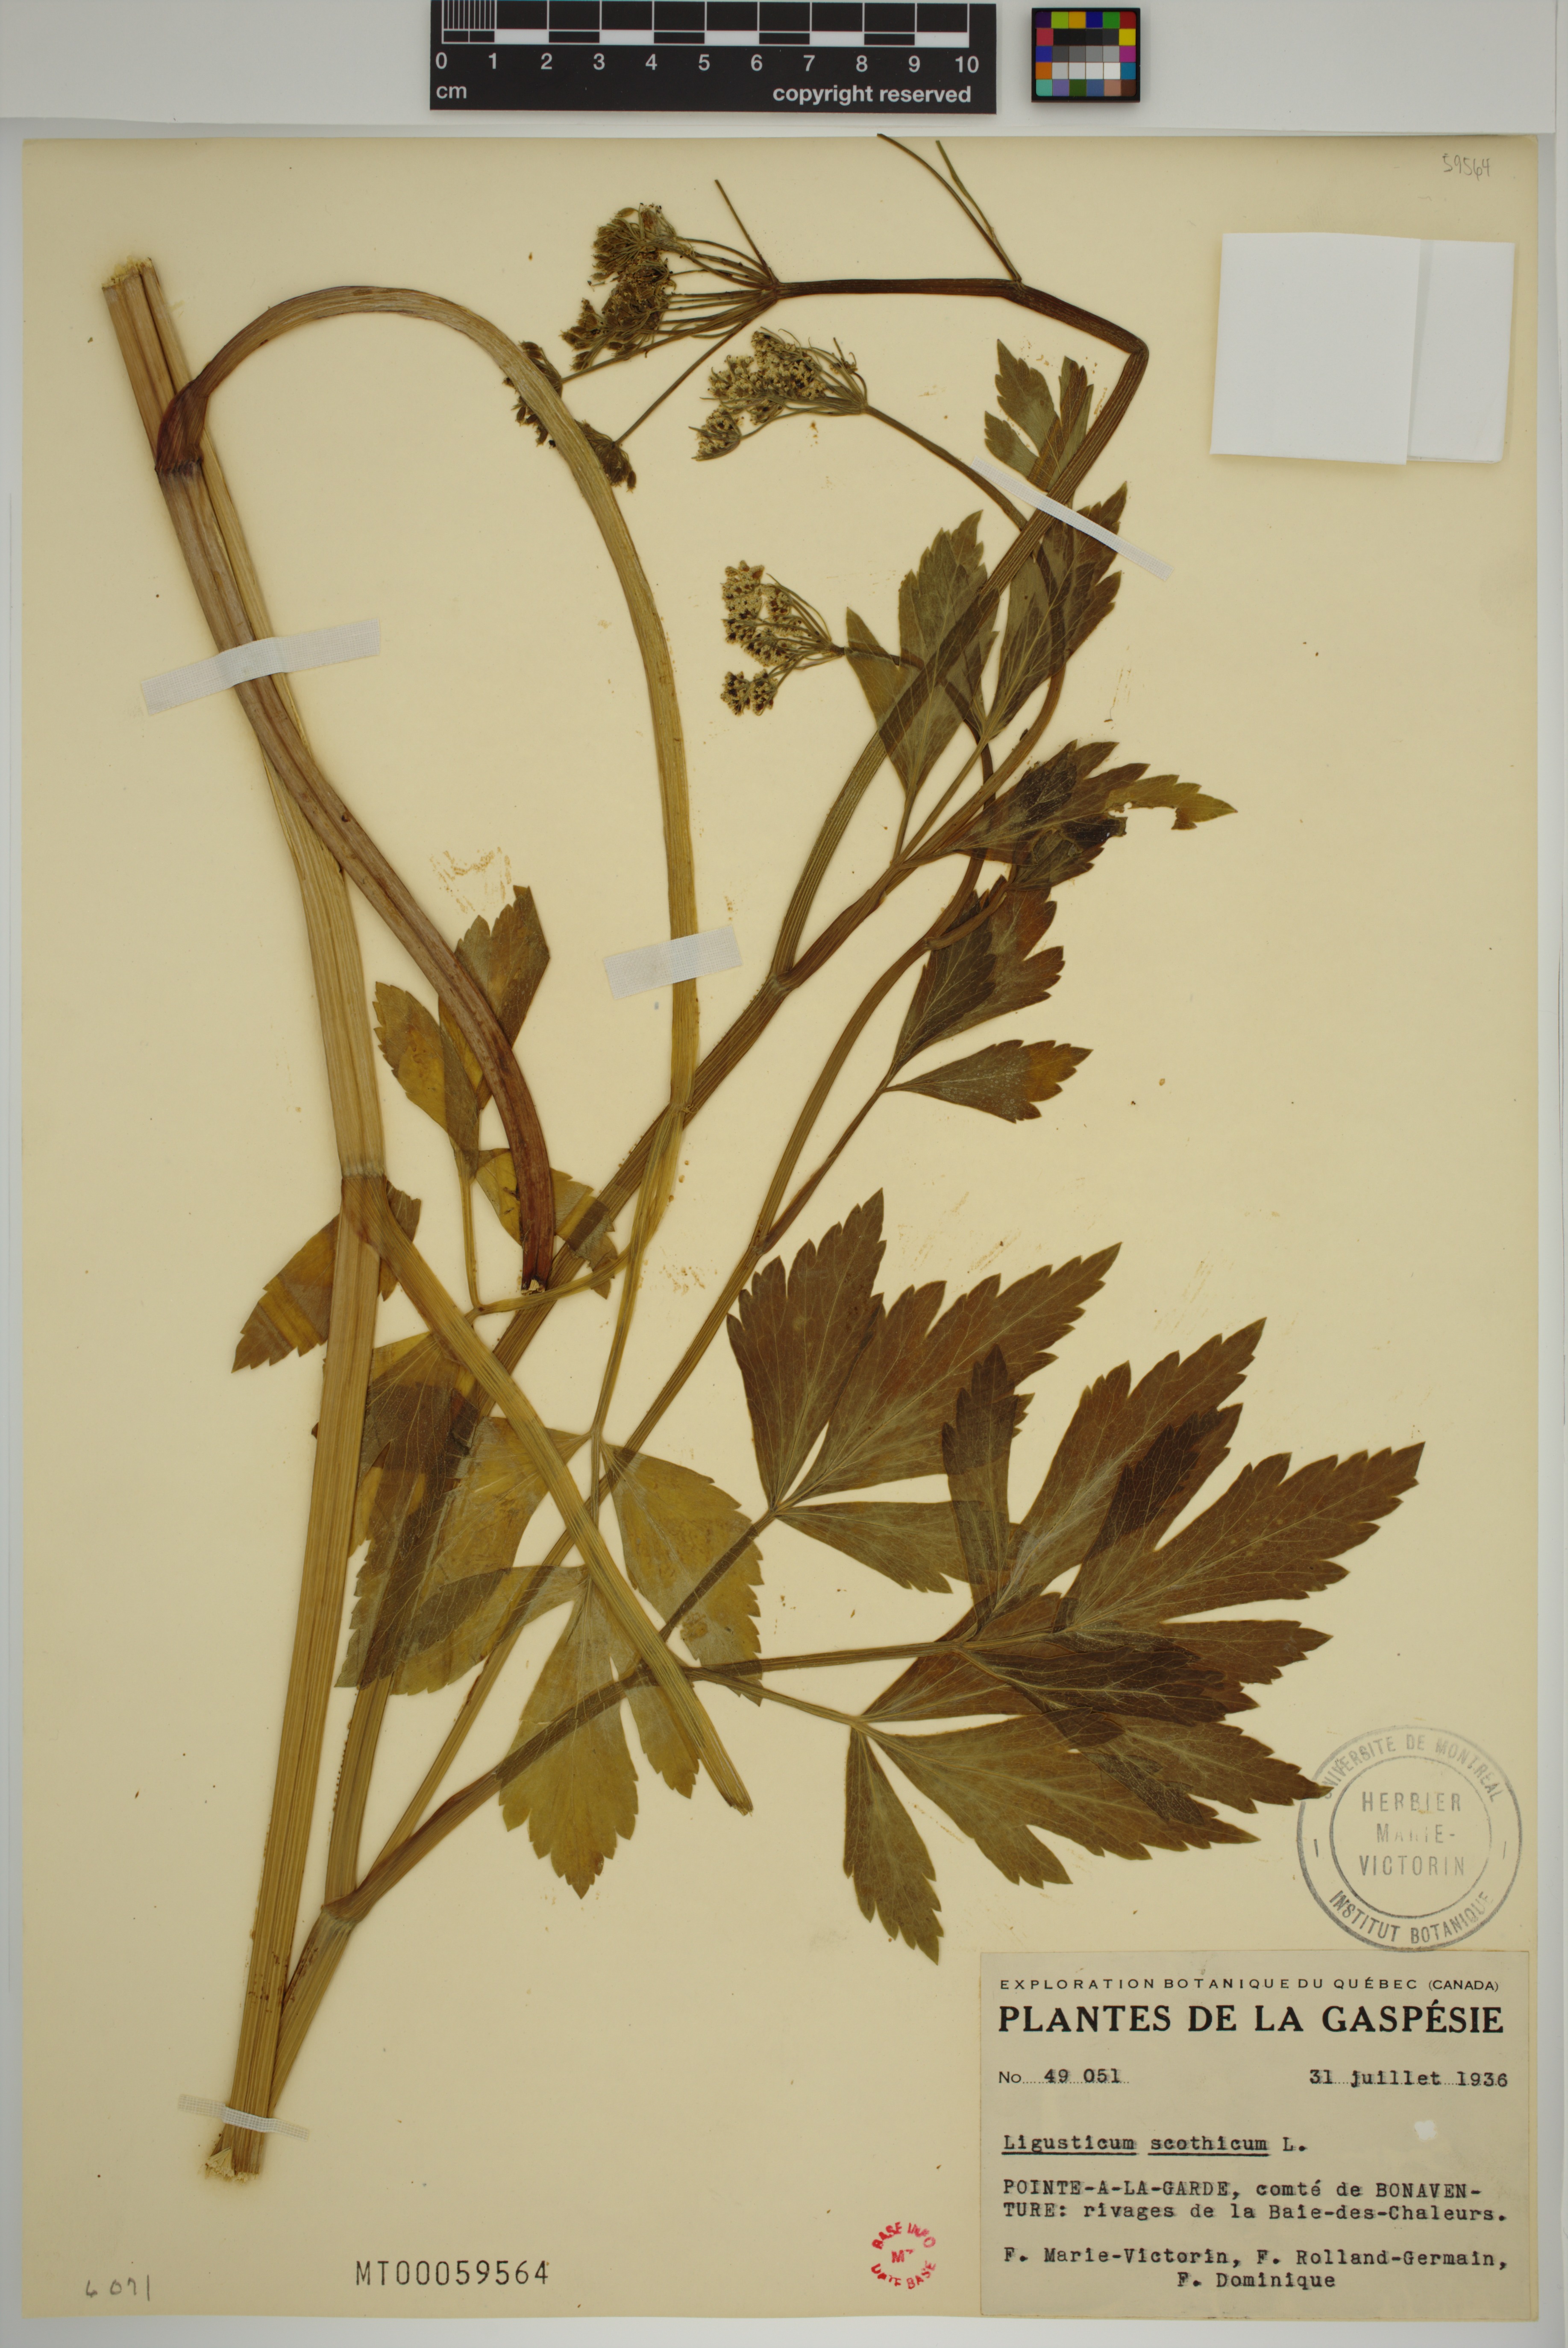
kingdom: Plantae
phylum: Tracheophyta
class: Magnoliopsida
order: Apiales
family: Apiaceae
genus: Ligusticum
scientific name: Ligusticum scothicum
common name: Beach lovage
